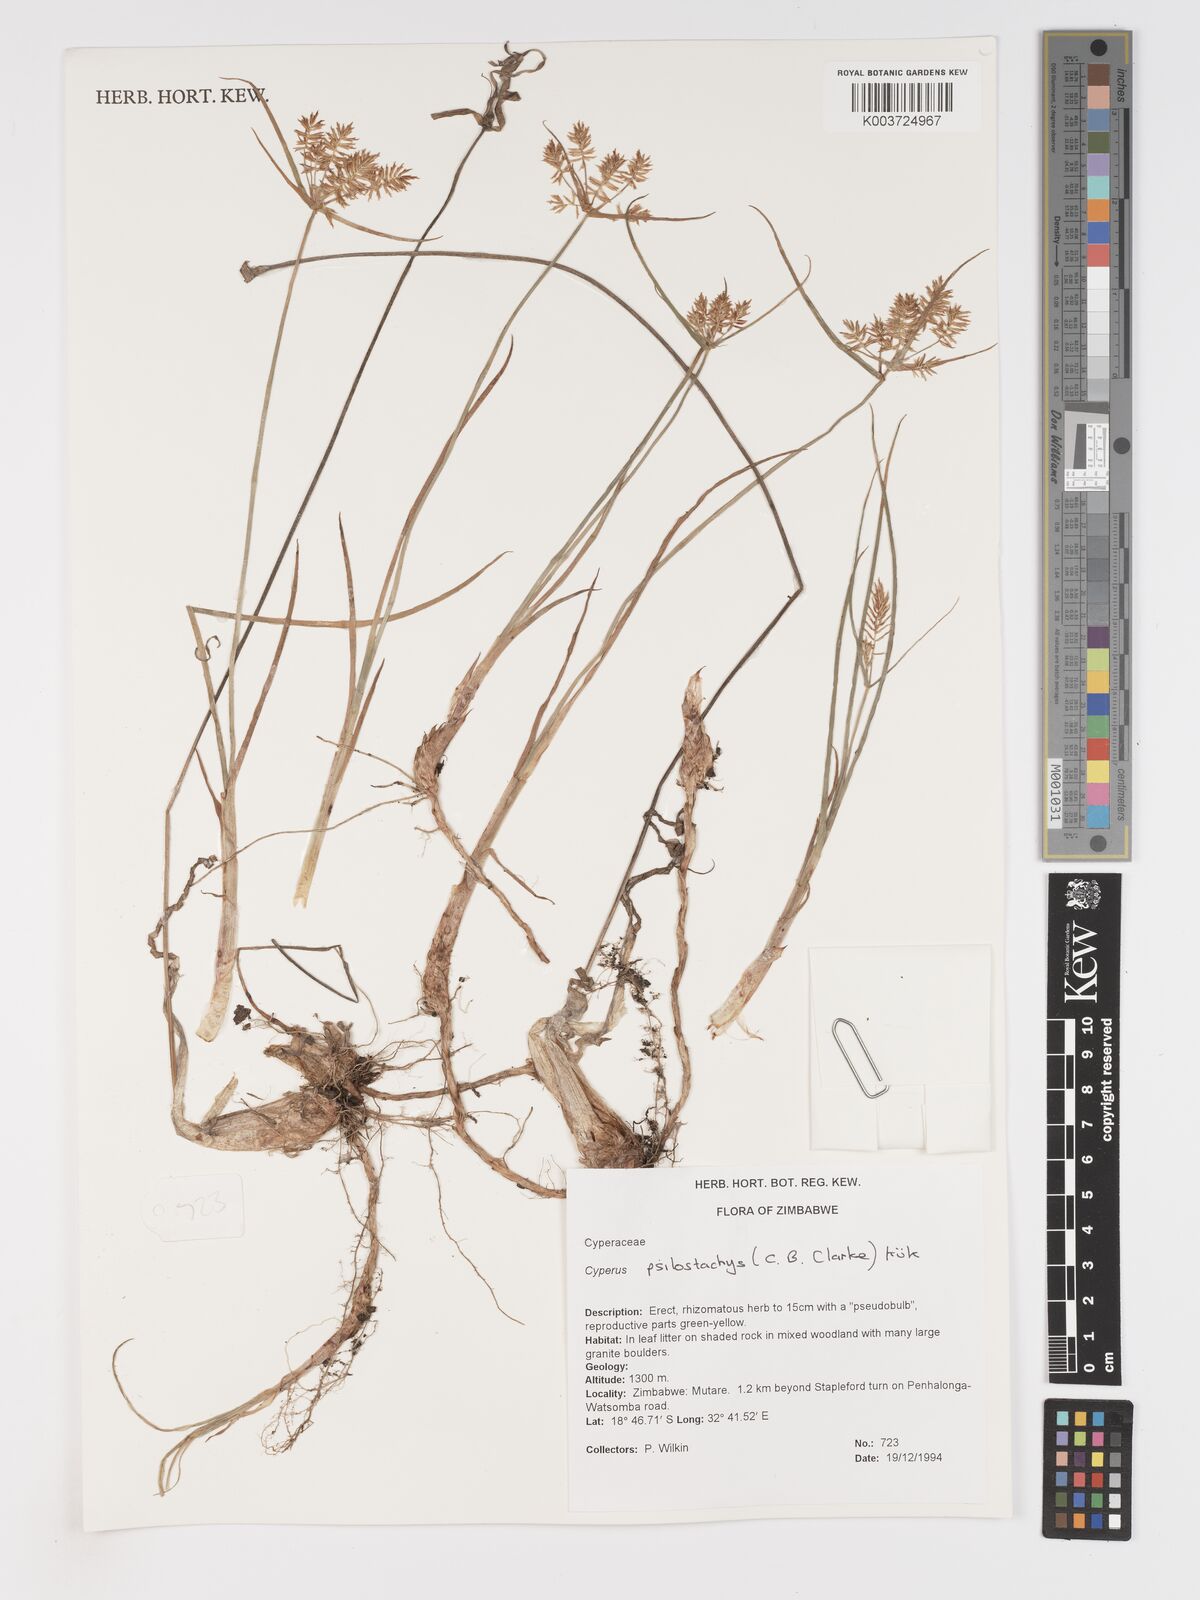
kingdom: Plantae
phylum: Tracheophyta
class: Liliopsida
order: Poales
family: Cyperaceae
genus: Cyperus
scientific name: Cyperus trigonellus
